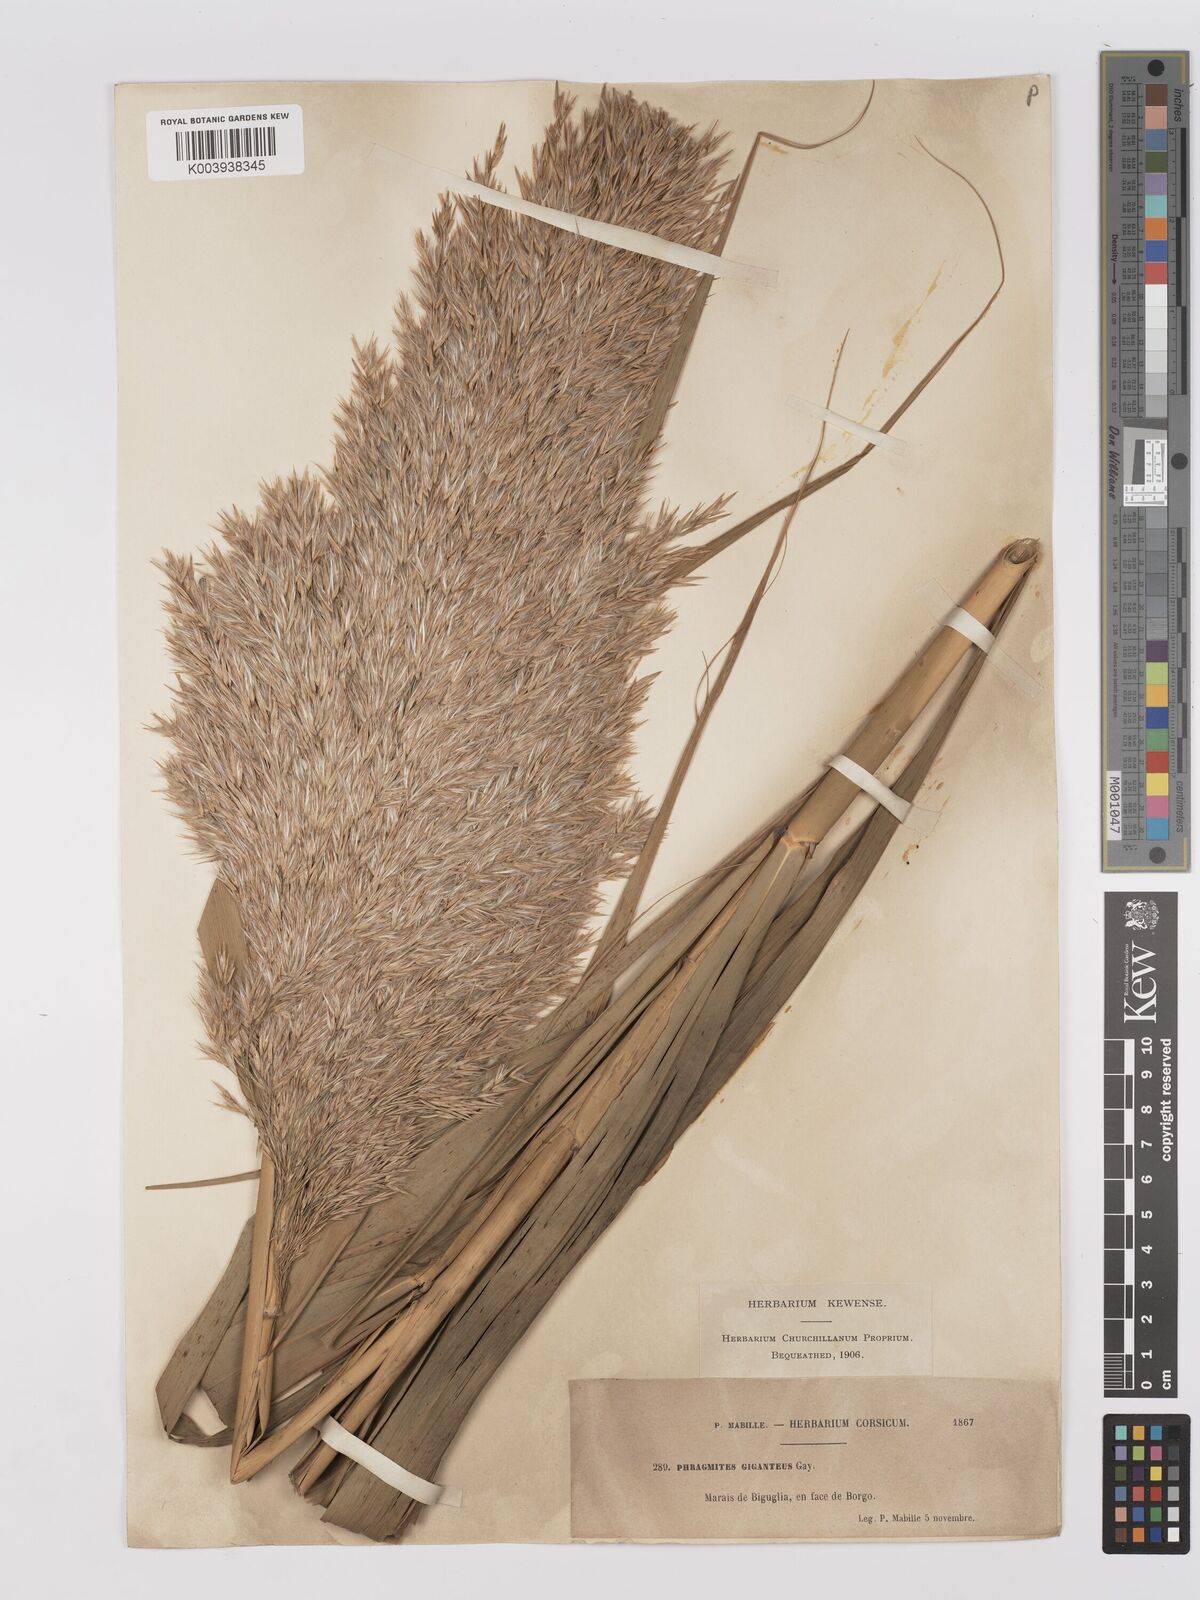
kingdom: Plantae
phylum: Tracheophyta
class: Liliopsida
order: Poales
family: Poaceae
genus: Phragmites
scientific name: Phragmites australis
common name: Common reed
